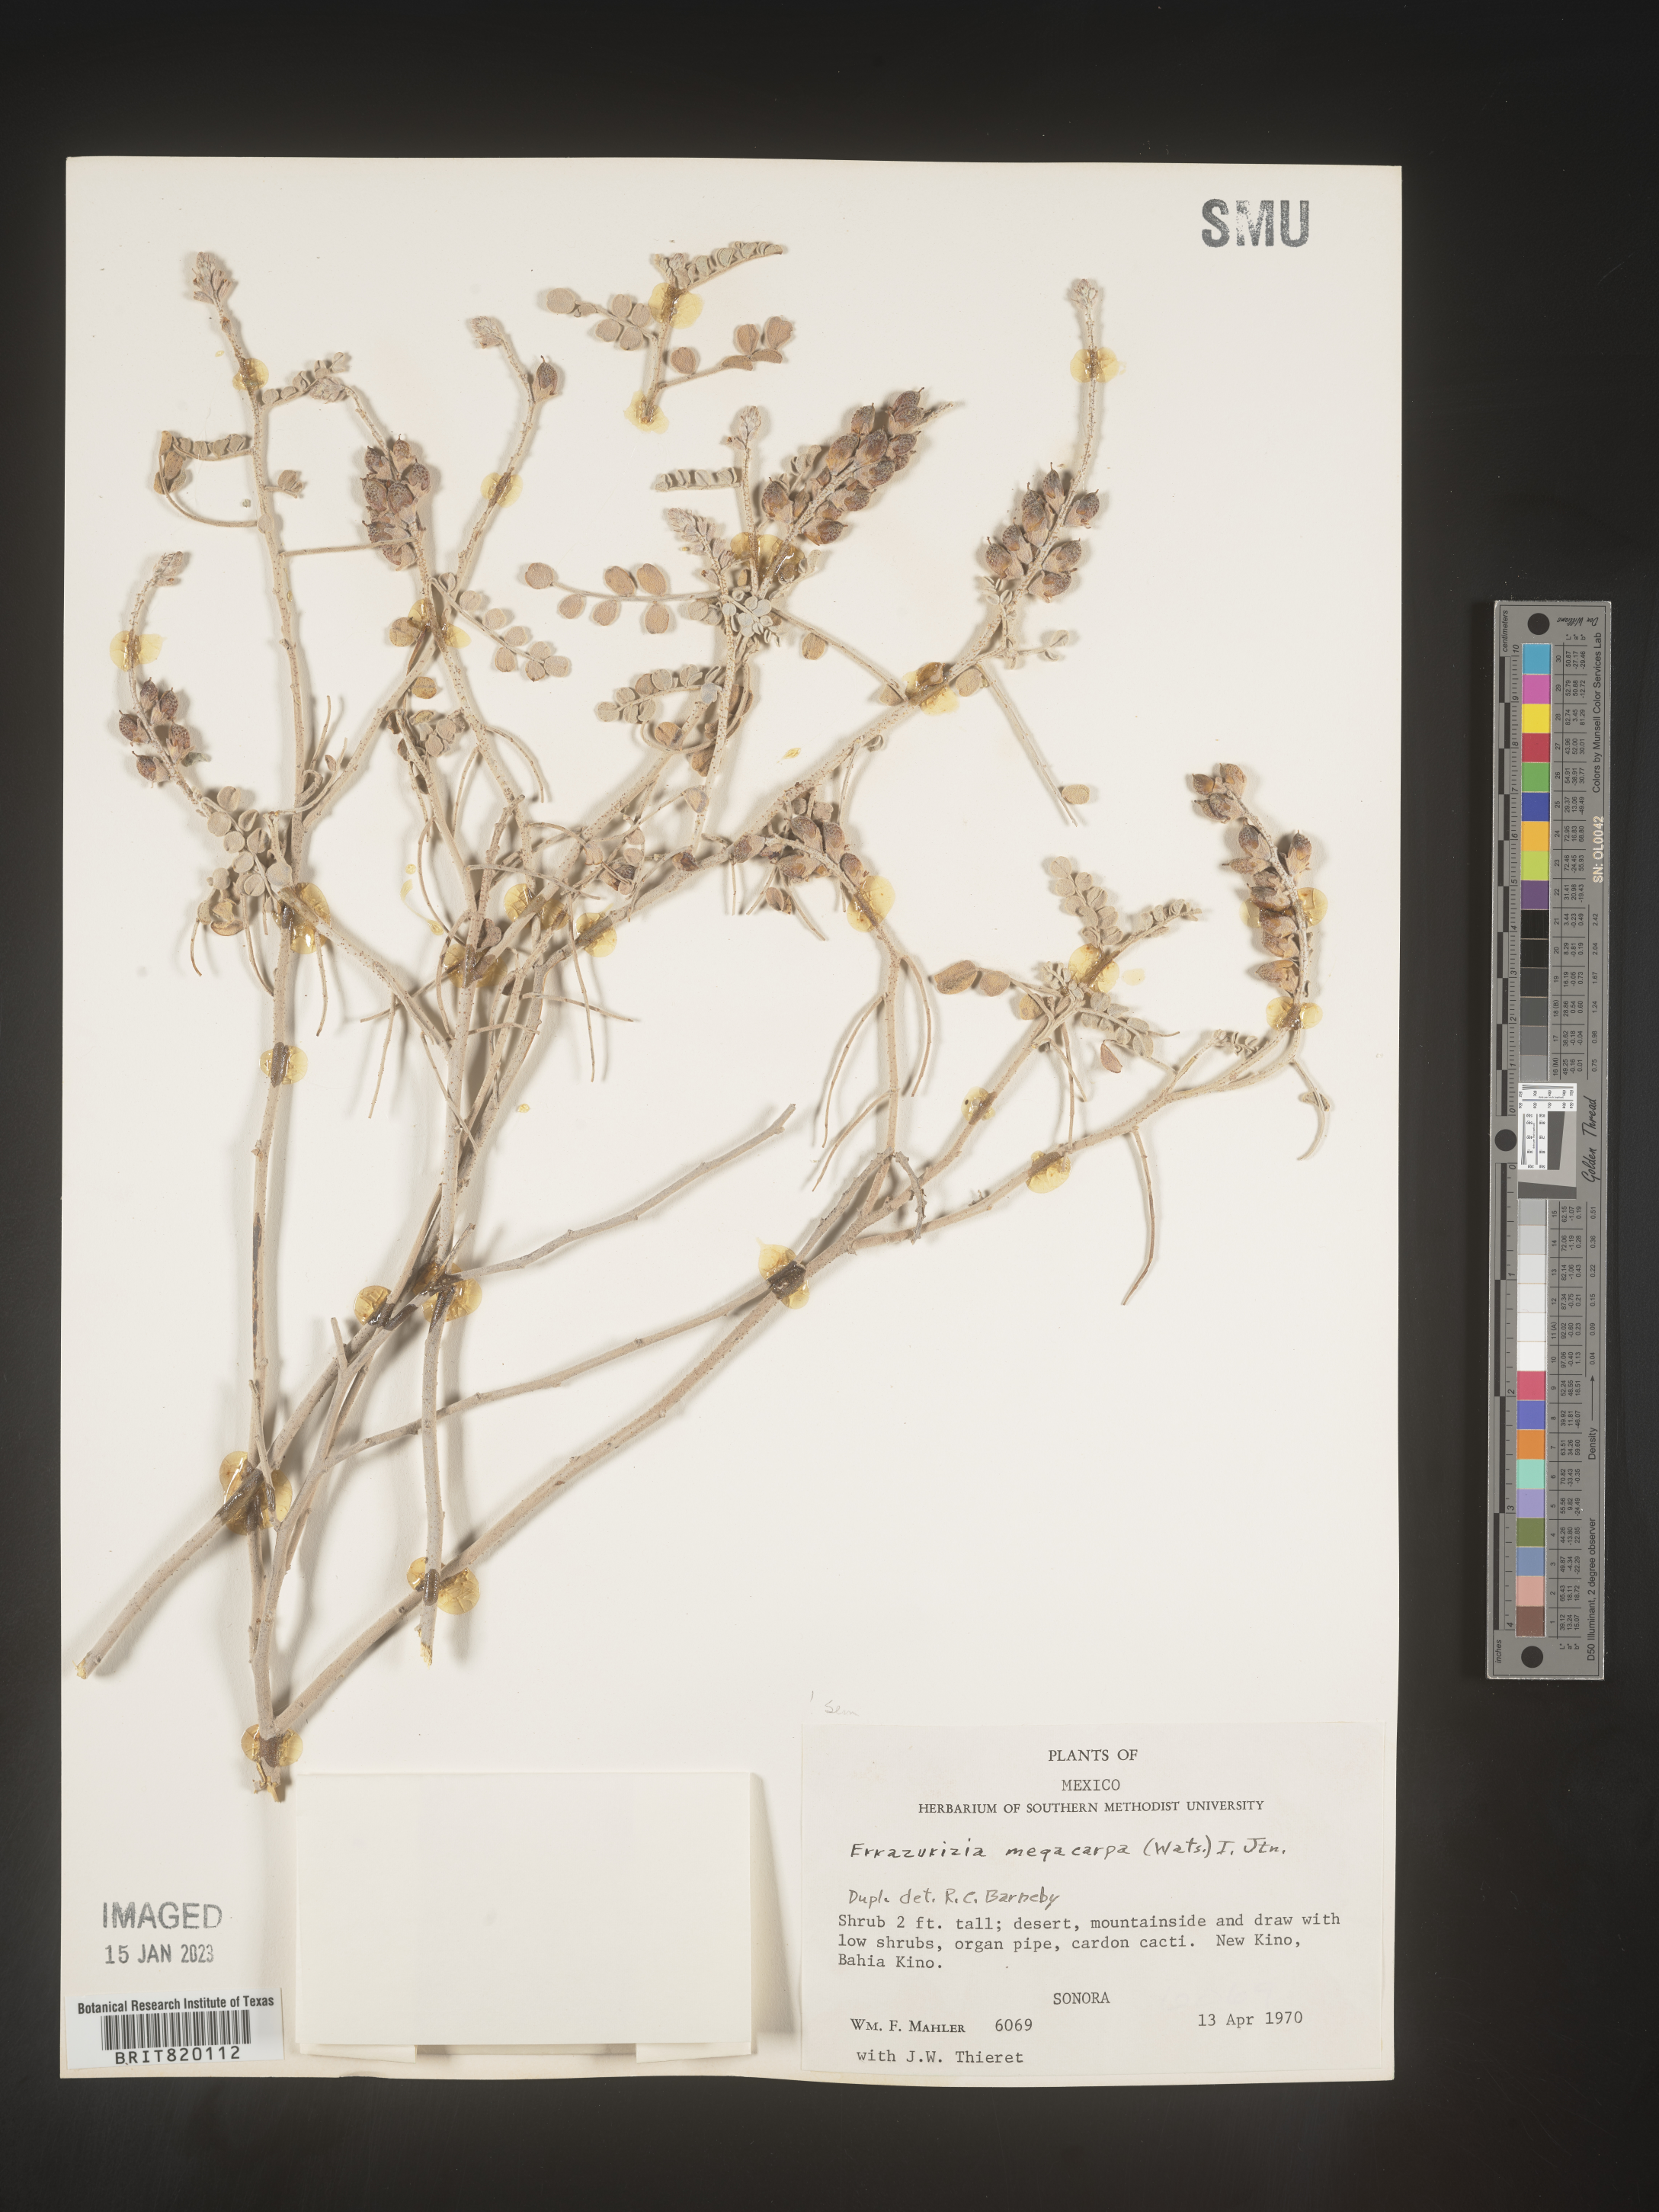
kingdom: Plantae
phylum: Tracheophyta
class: Magnoliopsida
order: Fabales
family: Fabaceae
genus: Errazurizia
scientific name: Errazurizia
